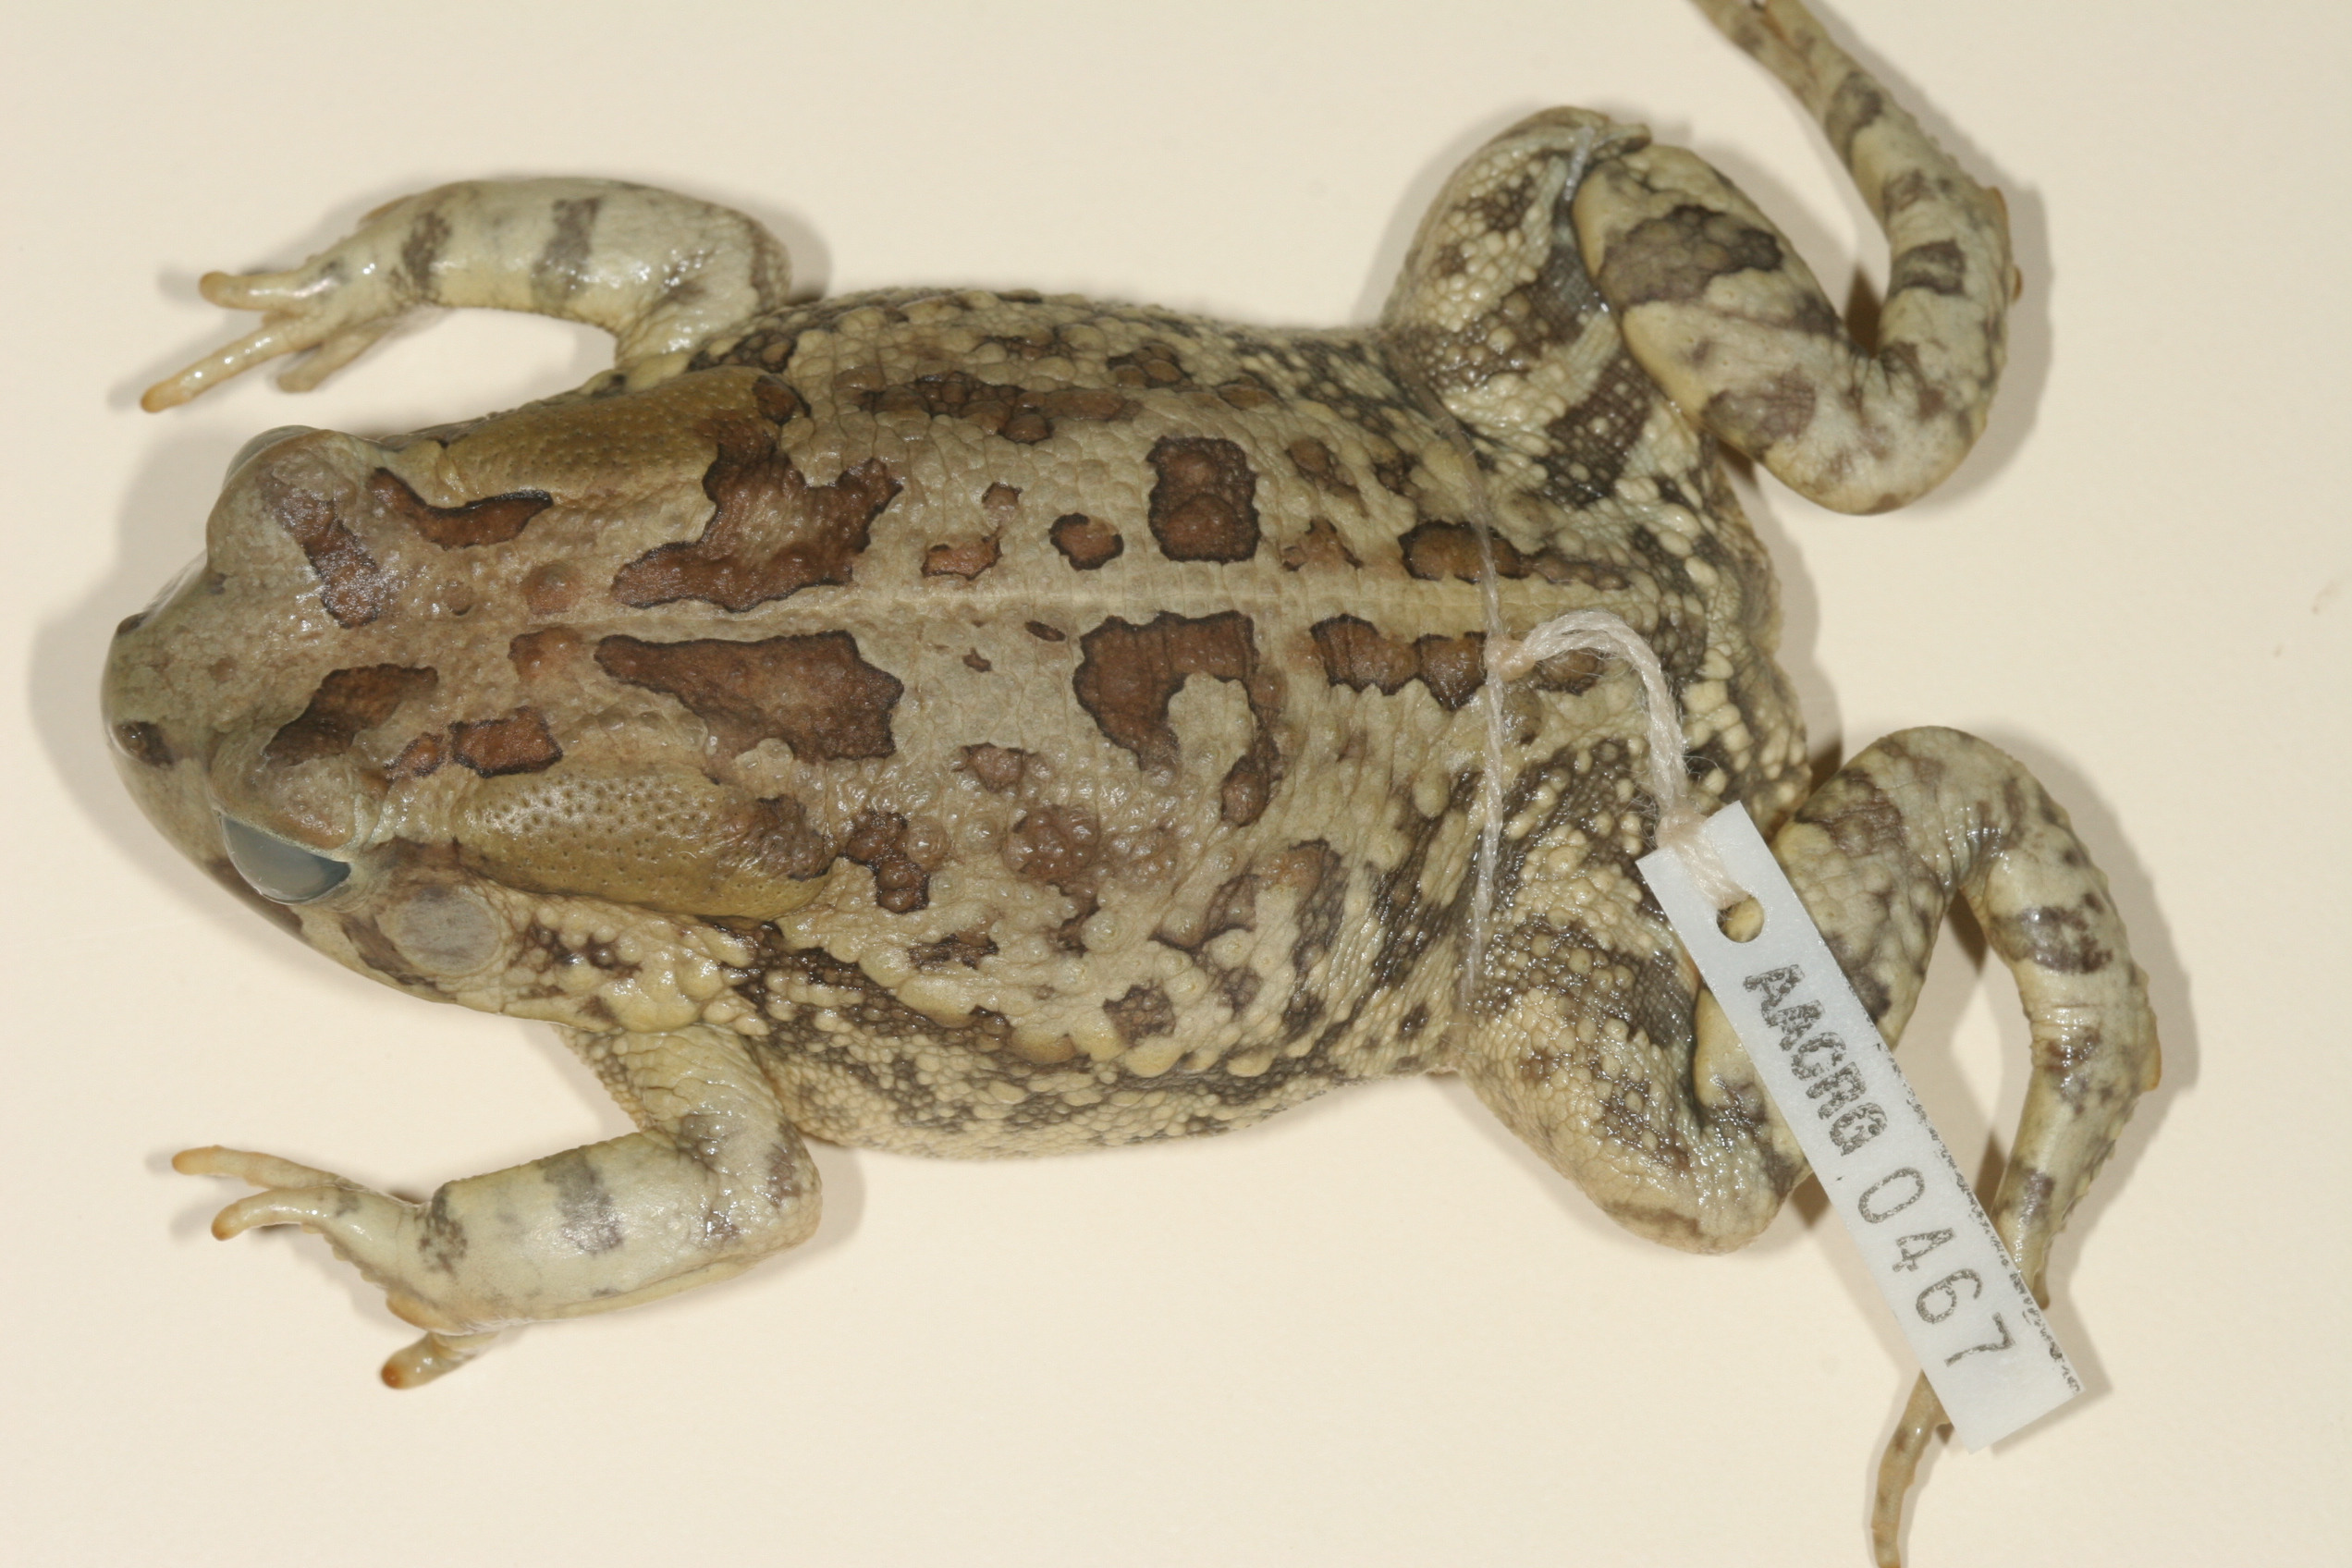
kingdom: Animalia
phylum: Chordata
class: Amphibia
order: Anura
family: Bufonidae
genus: Sclerophrys
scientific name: Sclerophrys garmani
